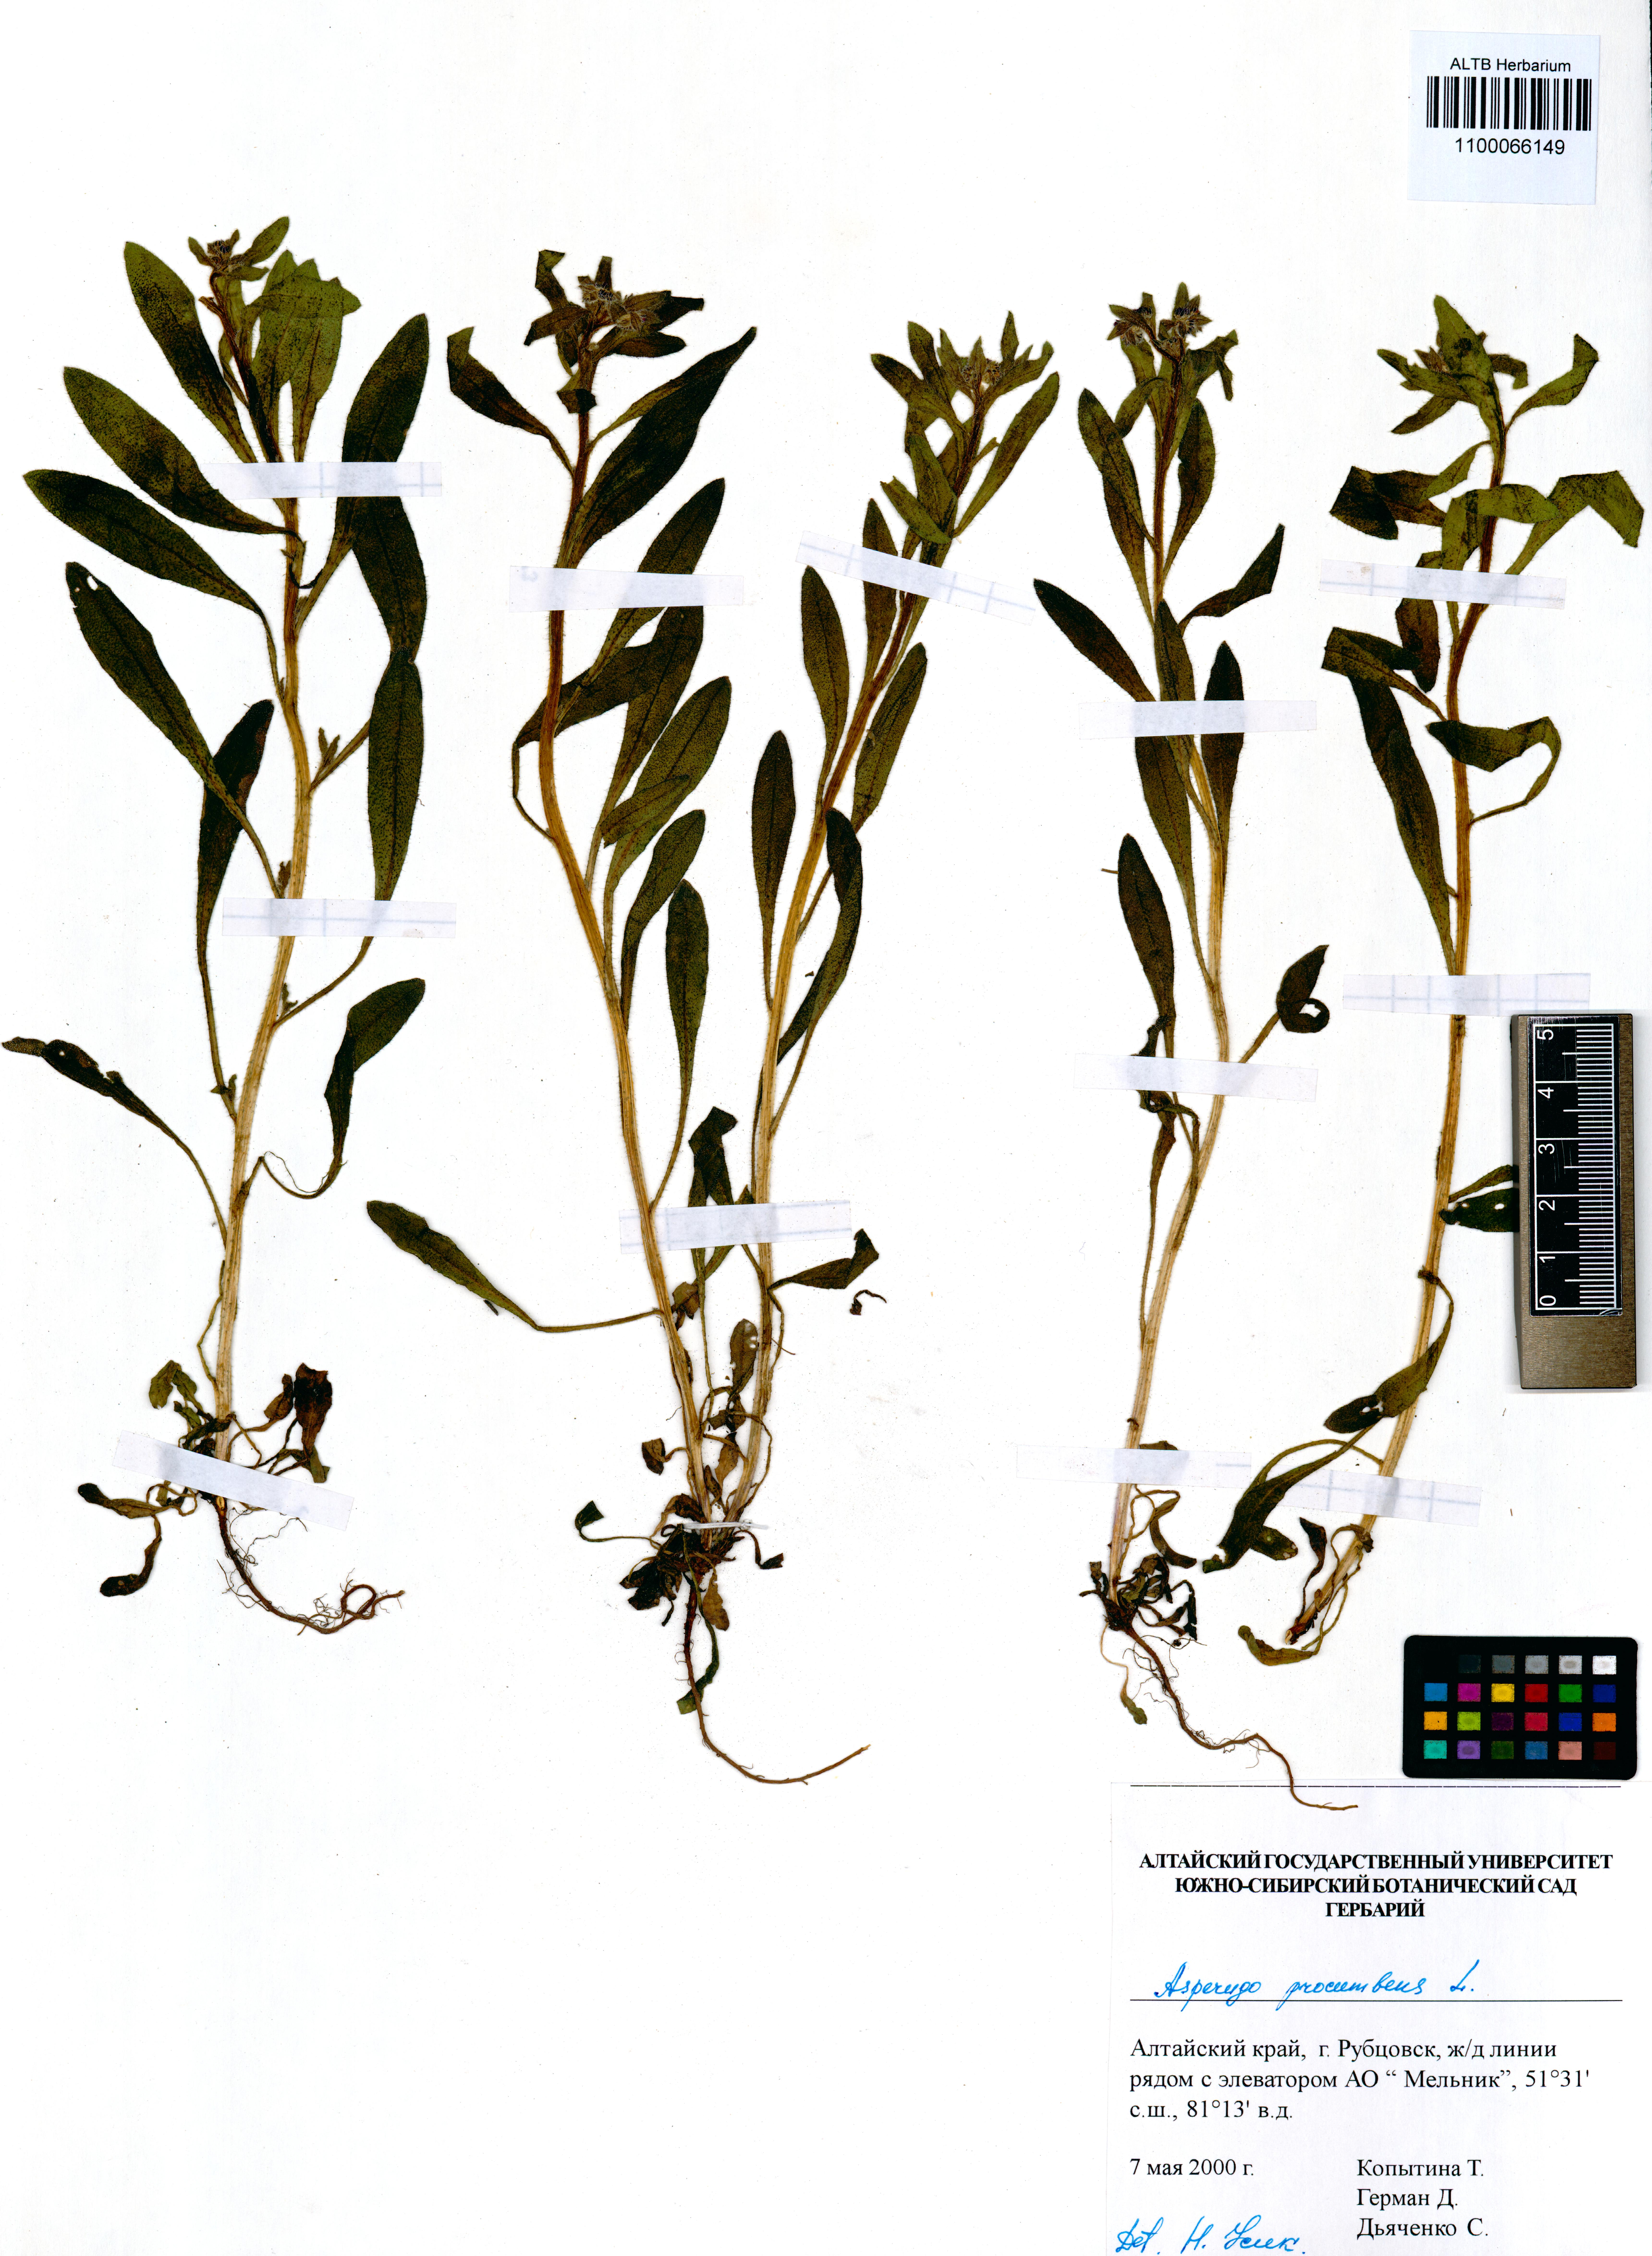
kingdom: Plantae
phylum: Tracheophyta
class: Magnoliopsida
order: Boraginales
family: Boraginaceae
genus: Asperugo
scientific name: Asperugo procumbens
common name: Madwort
